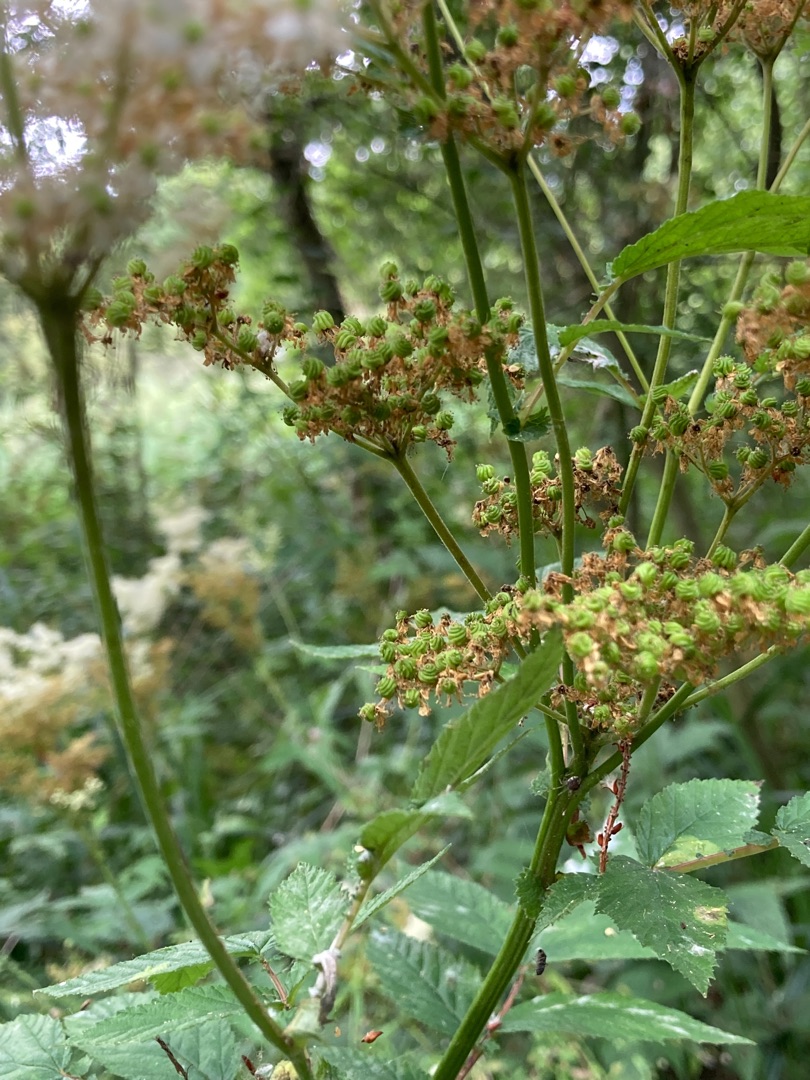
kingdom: Plantae
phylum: Tracheophyta
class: Magnoliopsida
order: Rosales
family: Rosaceae
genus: Filipendula
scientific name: Filipendula ulmaria
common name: Almindelig mjødurt
